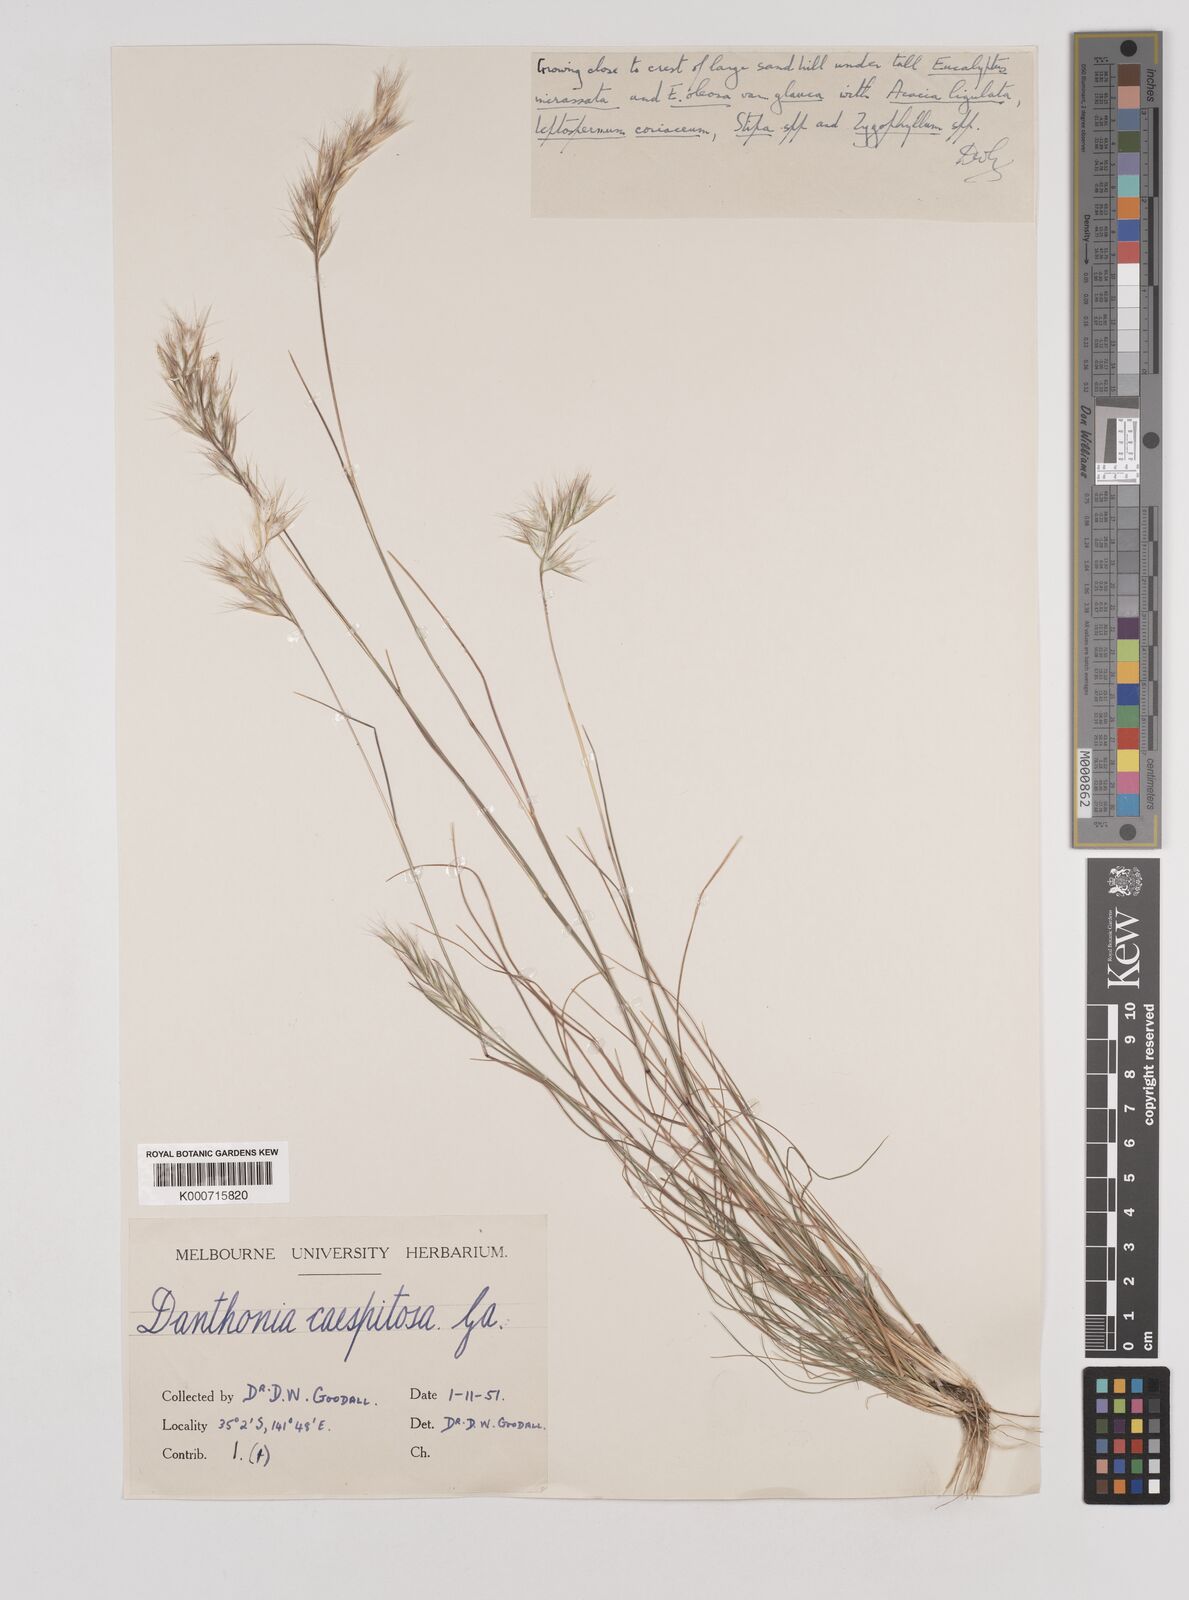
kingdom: Plantae
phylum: Tracheophyta
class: Liliopsida
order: Poales
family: Poaceae
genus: Rytidosperma
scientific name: Rytidosperma caespitosum
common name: Tufted wallaby grass
